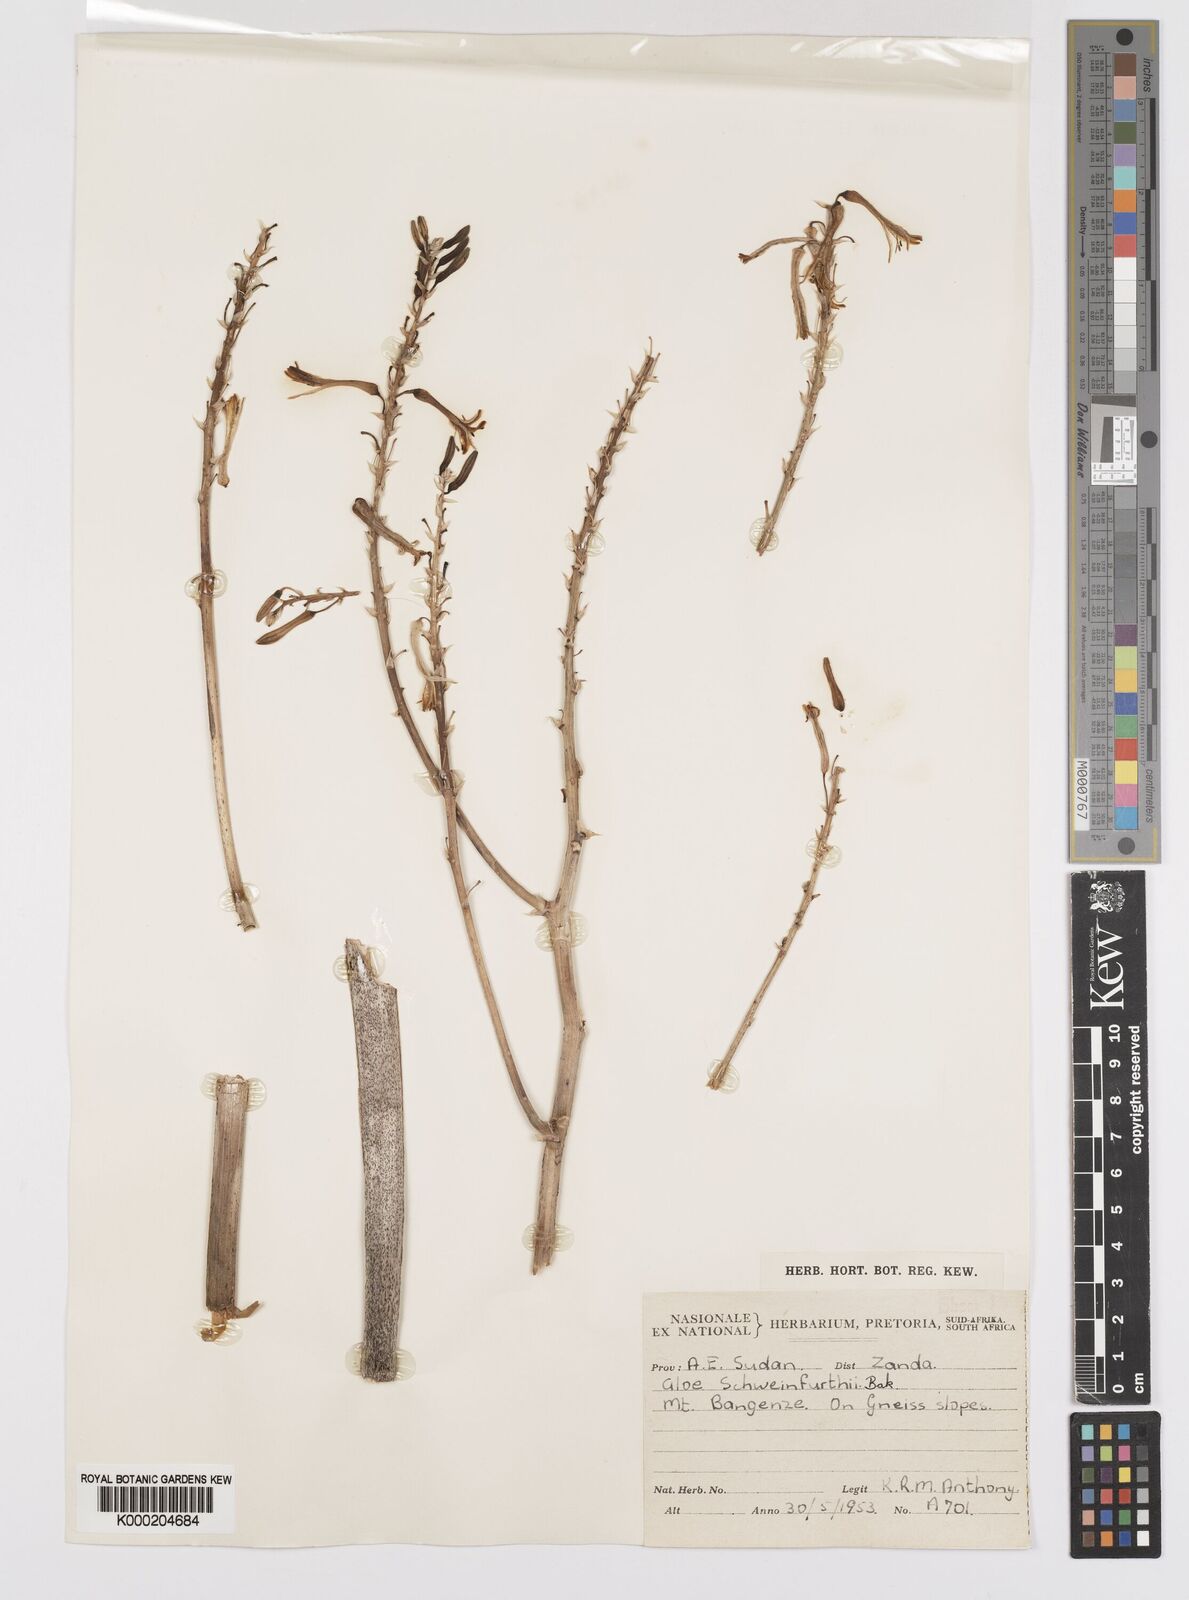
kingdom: Plantae
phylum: Tracheophyta
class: Liliopsida
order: Asparagales
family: Asphodelaceae
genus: Aloe
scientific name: Aloe schweinfurthii
